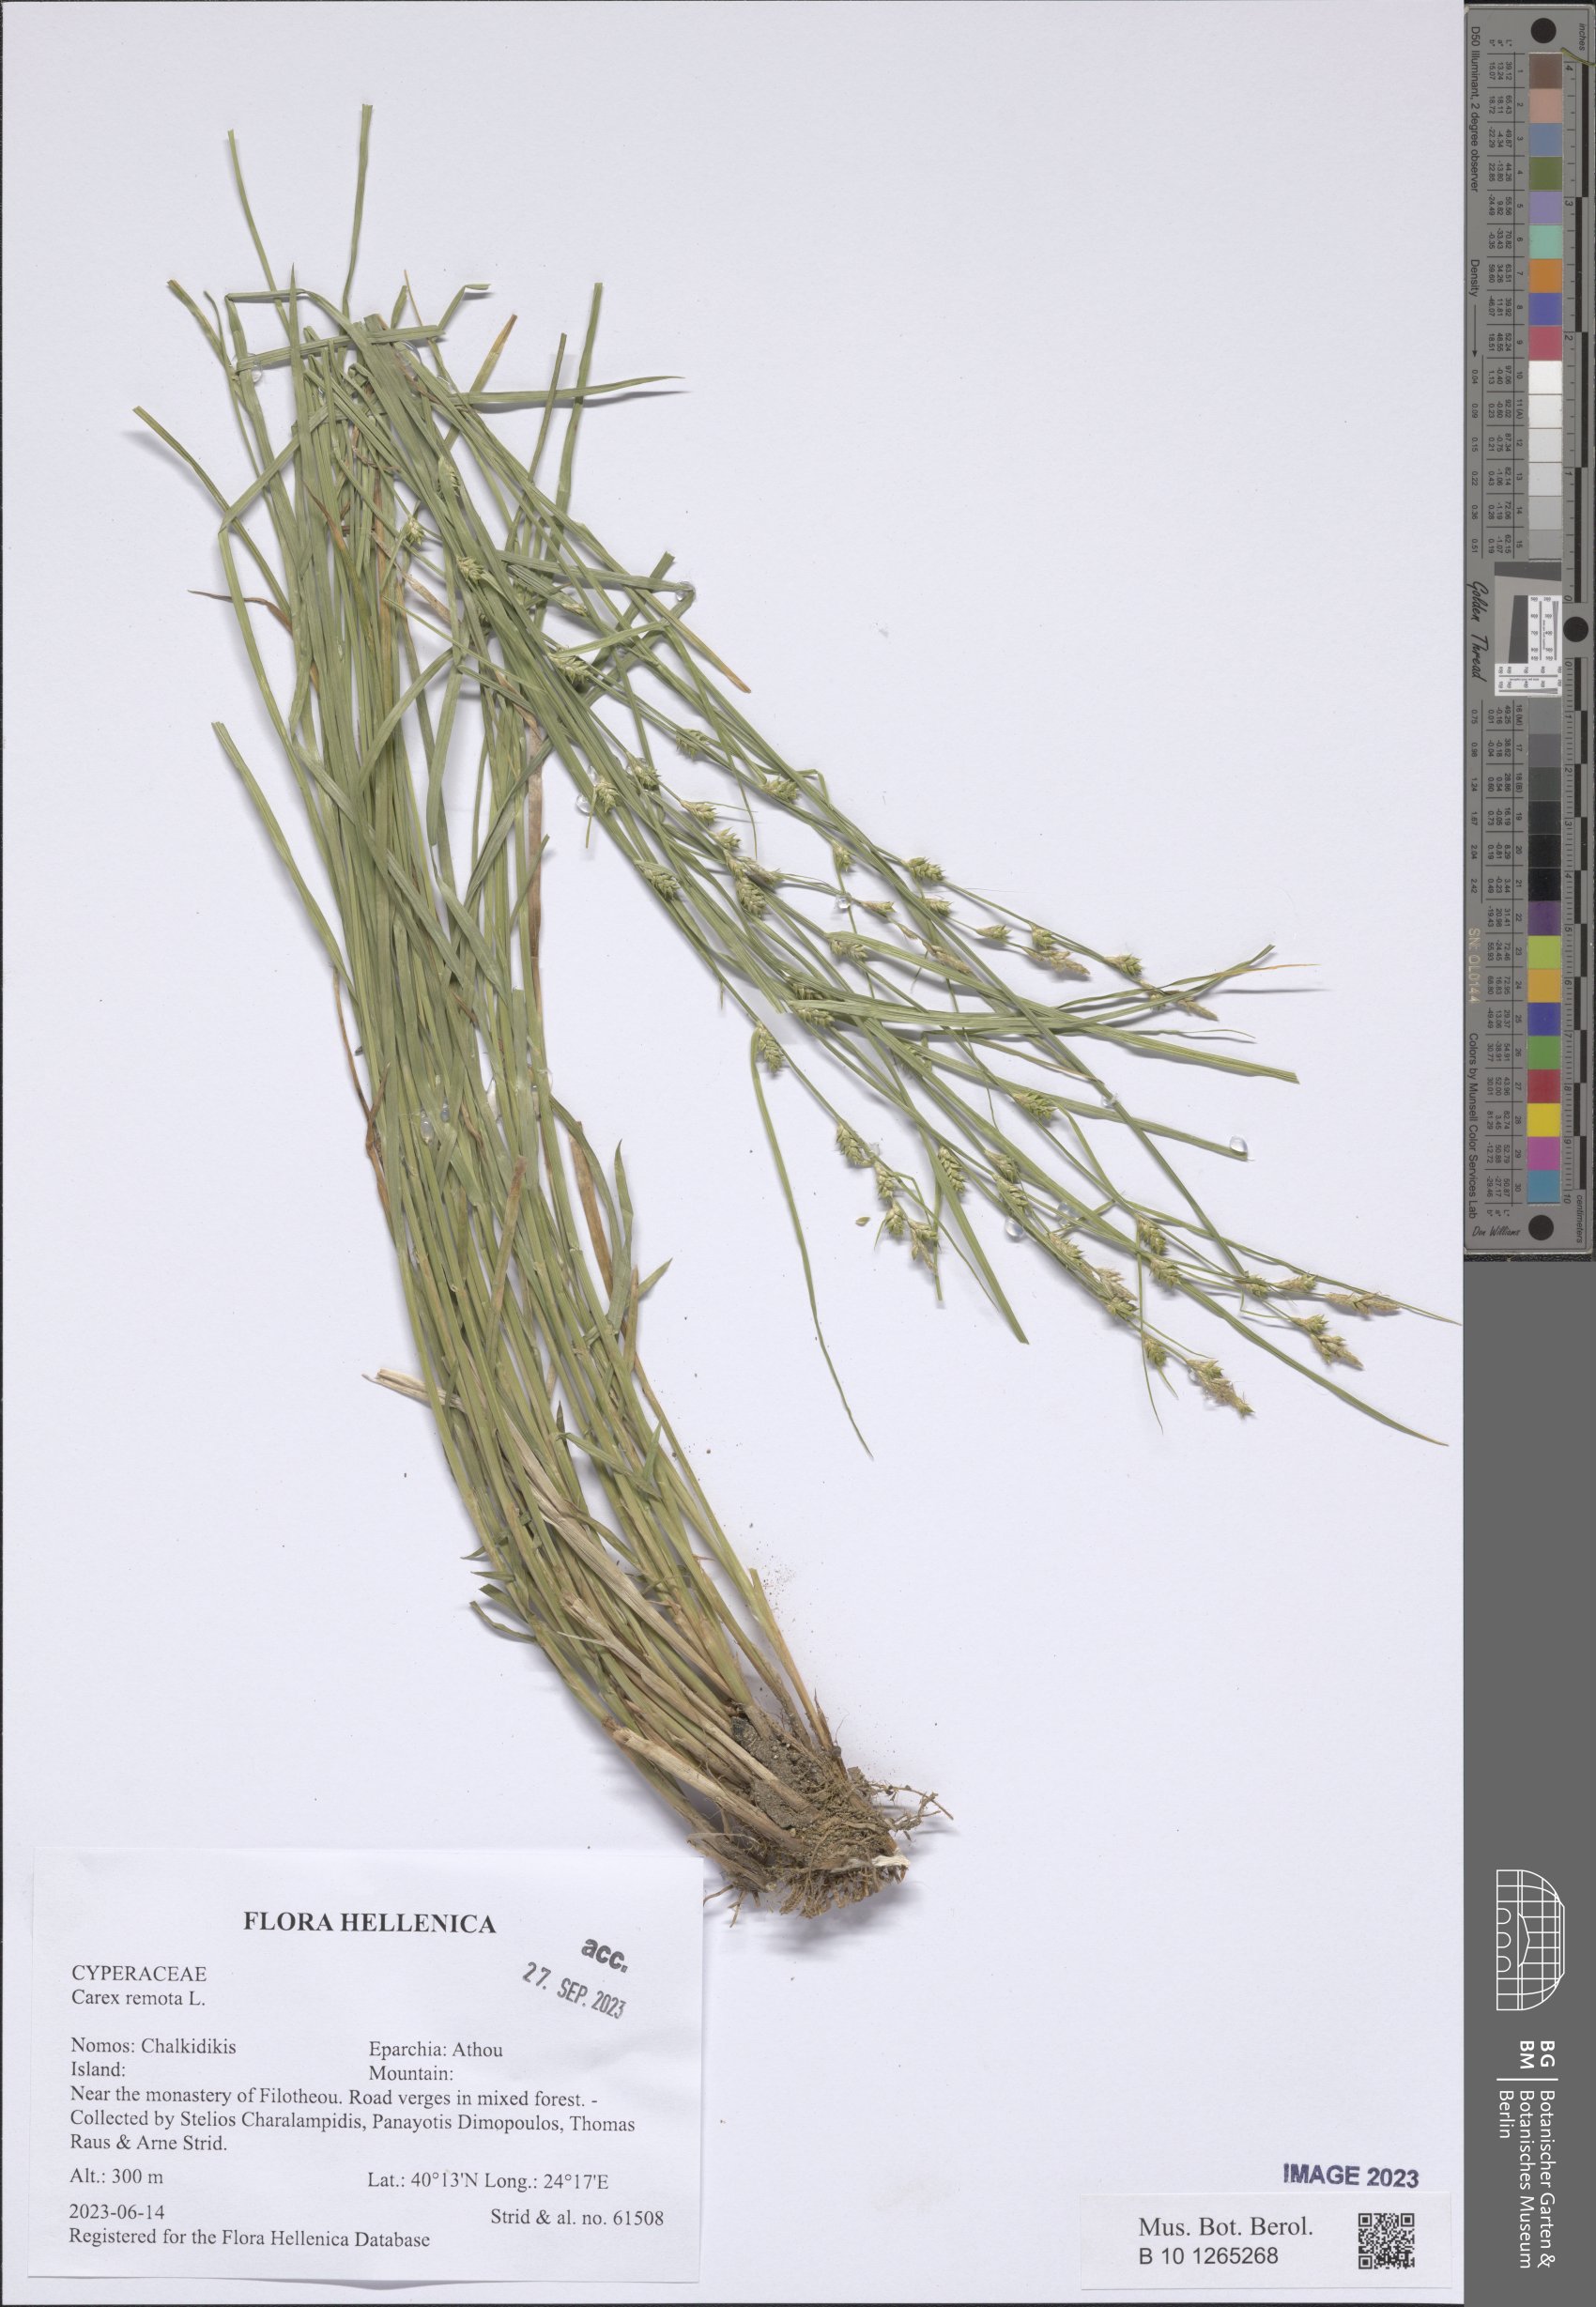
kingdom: Plantae
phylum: Tracheophyta
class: Liliopsida
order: Poales
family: Cyperaceae
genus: Carex
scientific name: Carex remota
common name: Remote sedge
